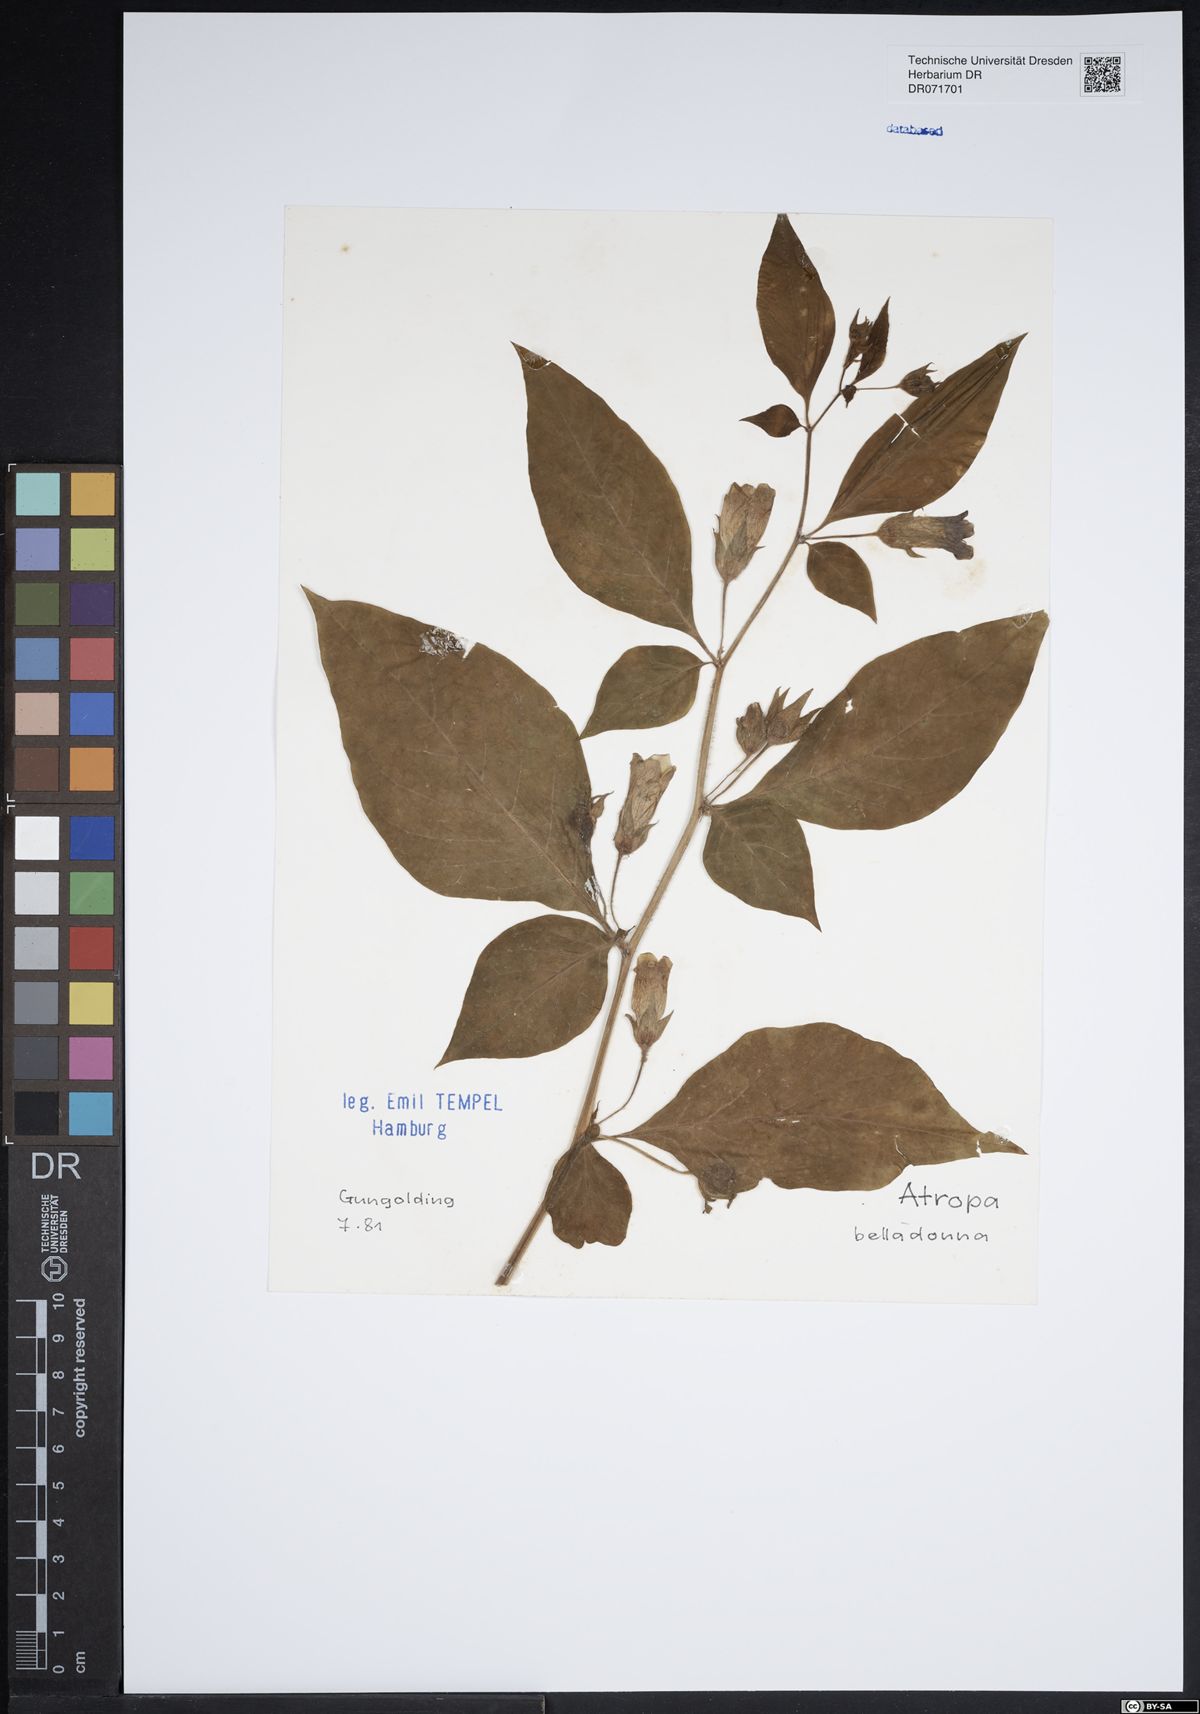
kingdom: Plantae
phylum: Tracheophyta
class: Magnoliopsida
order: Solanales
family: Solanaceae
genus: Atropa
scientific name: Atropa belladonna
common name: Deadly nightshade
